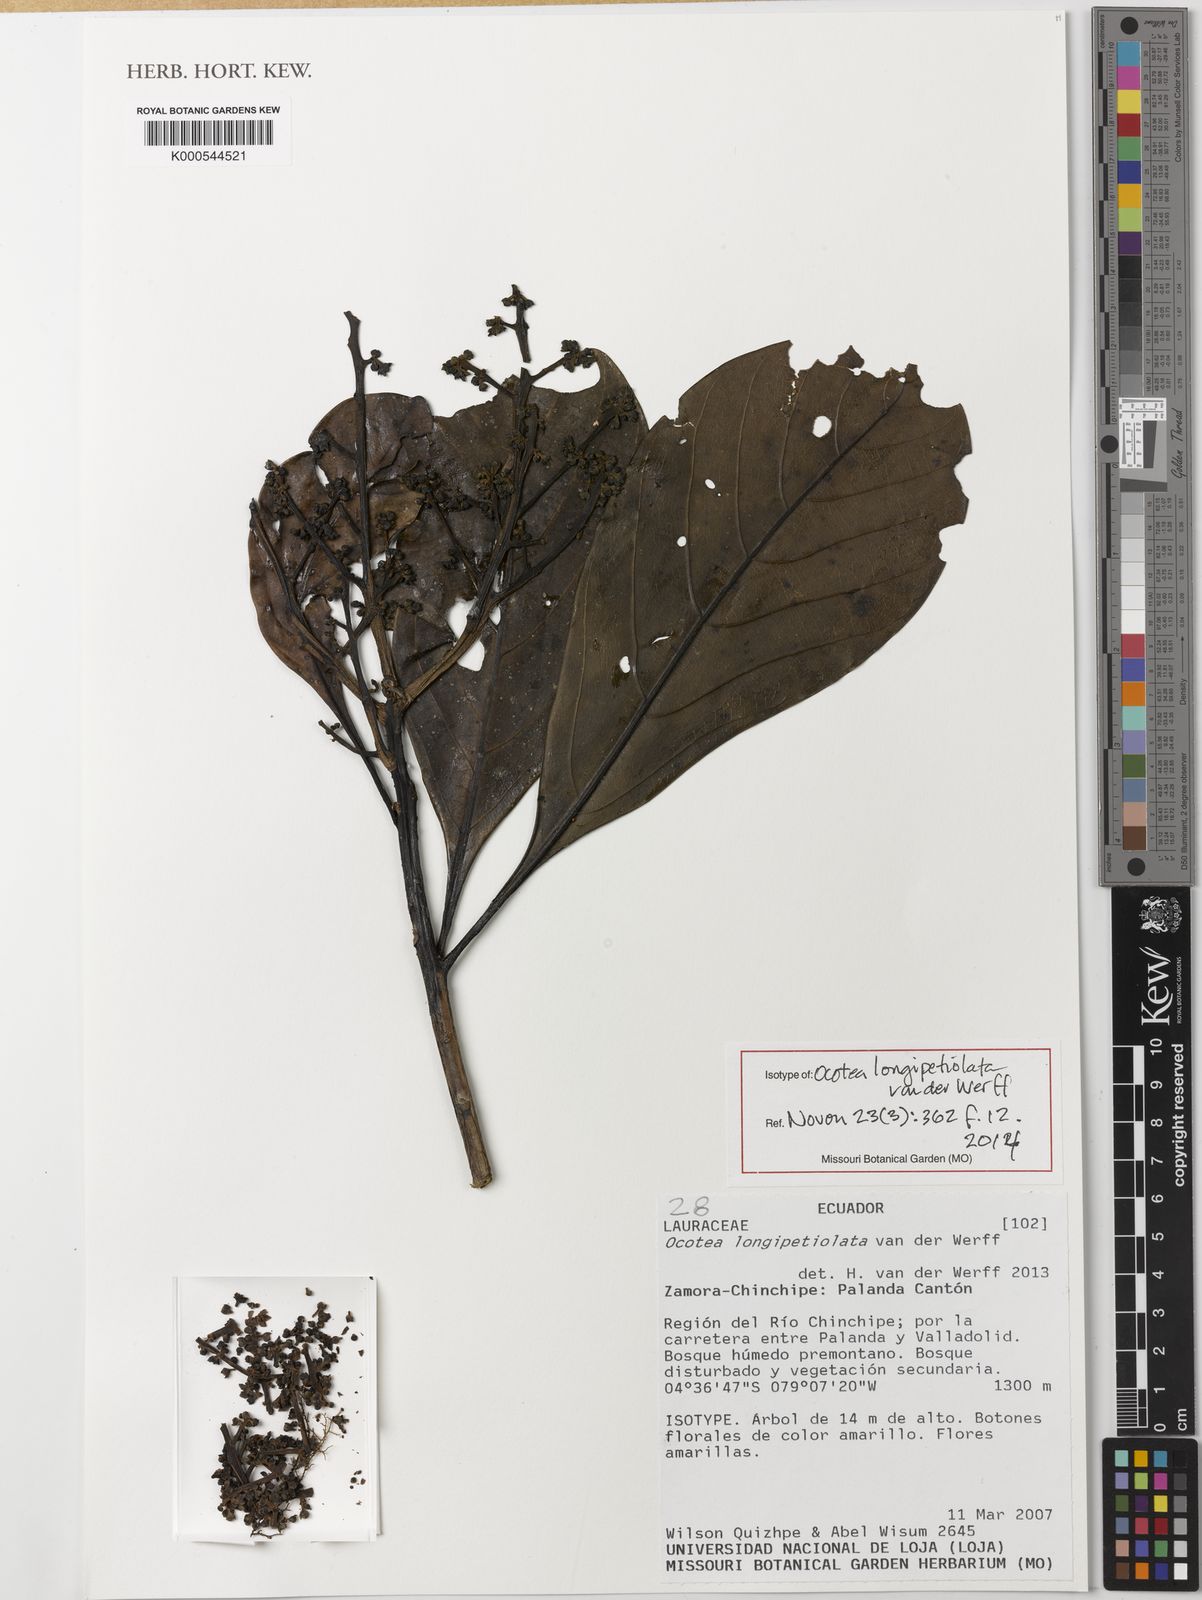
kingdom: Plantae
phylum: Tracheophyta
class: Magnoliopsida
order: Laurales
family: Lauraceae
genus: Ocotea
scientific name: Ocotea longipetiolata
